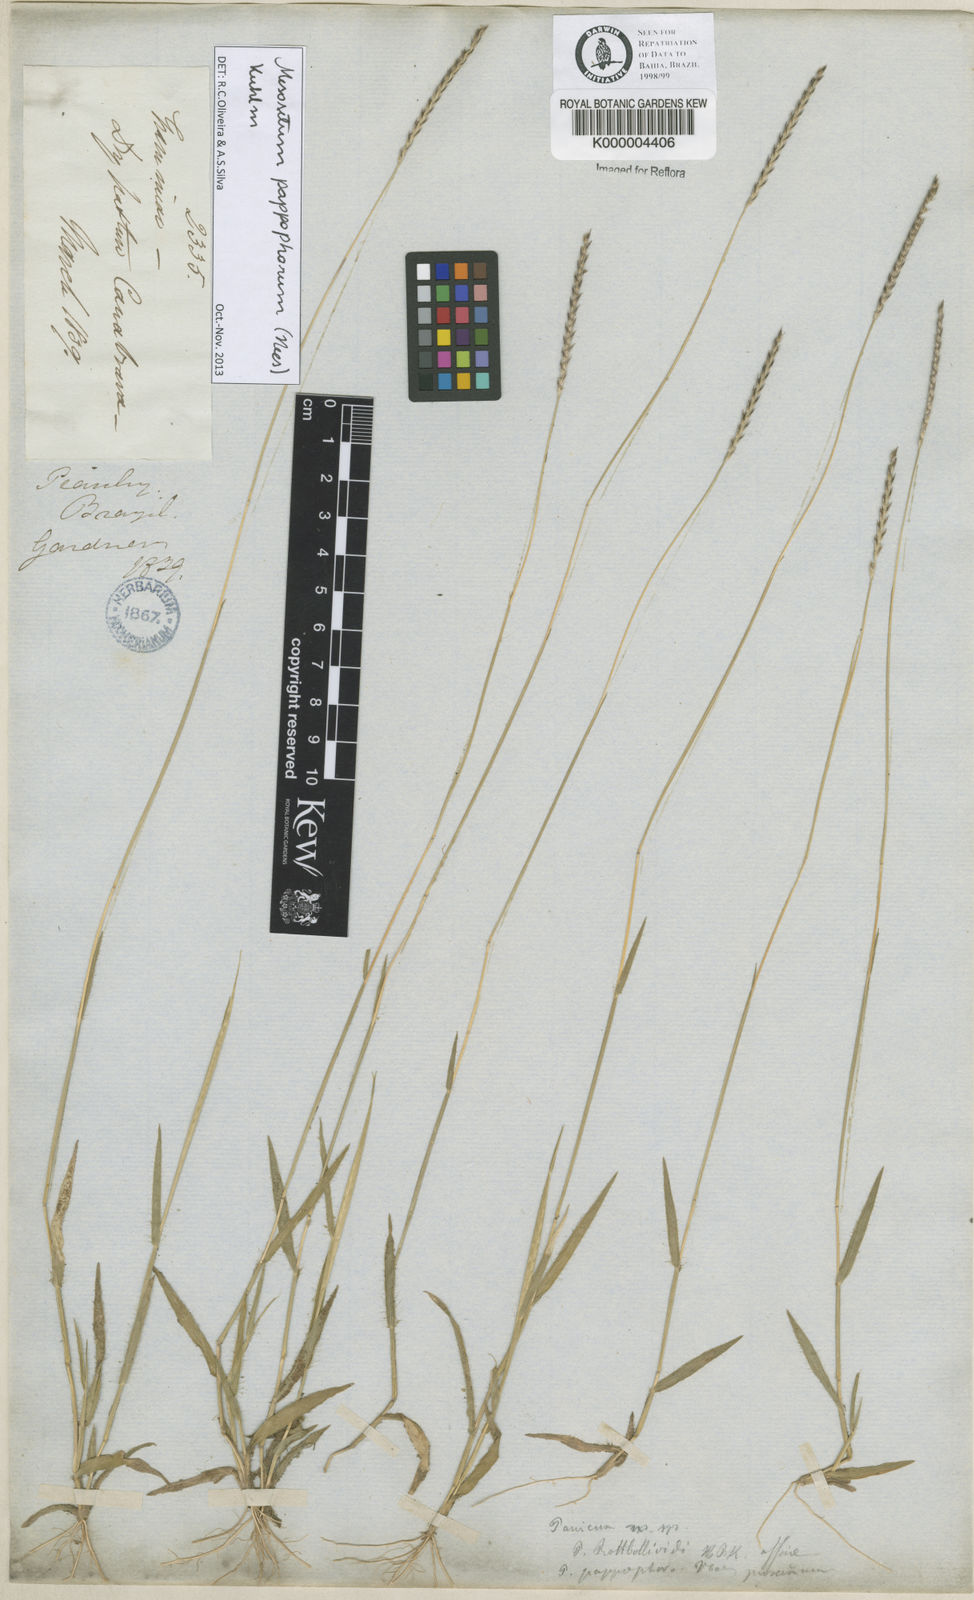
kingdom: Plantae
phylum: Tracheophyta
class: Liliopsida
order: Poales
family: Poaceae
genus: Mesosetum
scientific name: Mesosetum pappophorum
